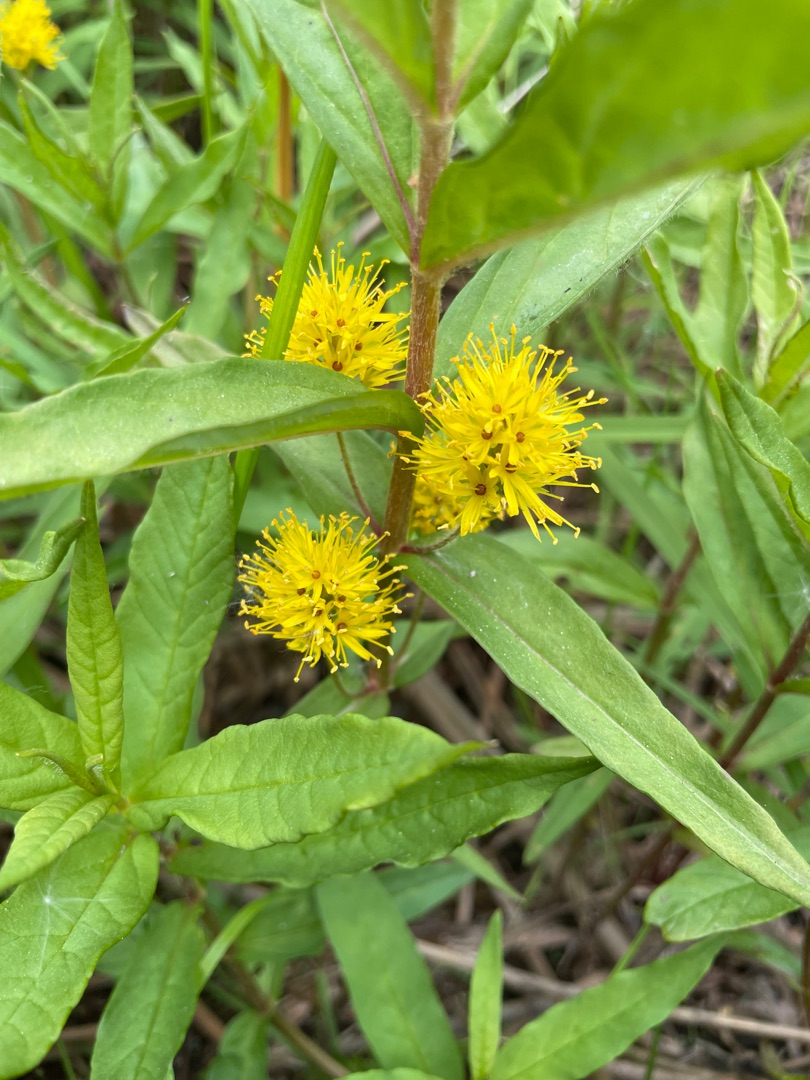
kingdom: Plantae
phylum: Tracheophyta
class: Magnoliopsida
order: Ericales
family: Primulaceae
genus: Lysimachia
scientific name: Lysimachia thyrsiflora
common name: Dusk-fredløs
